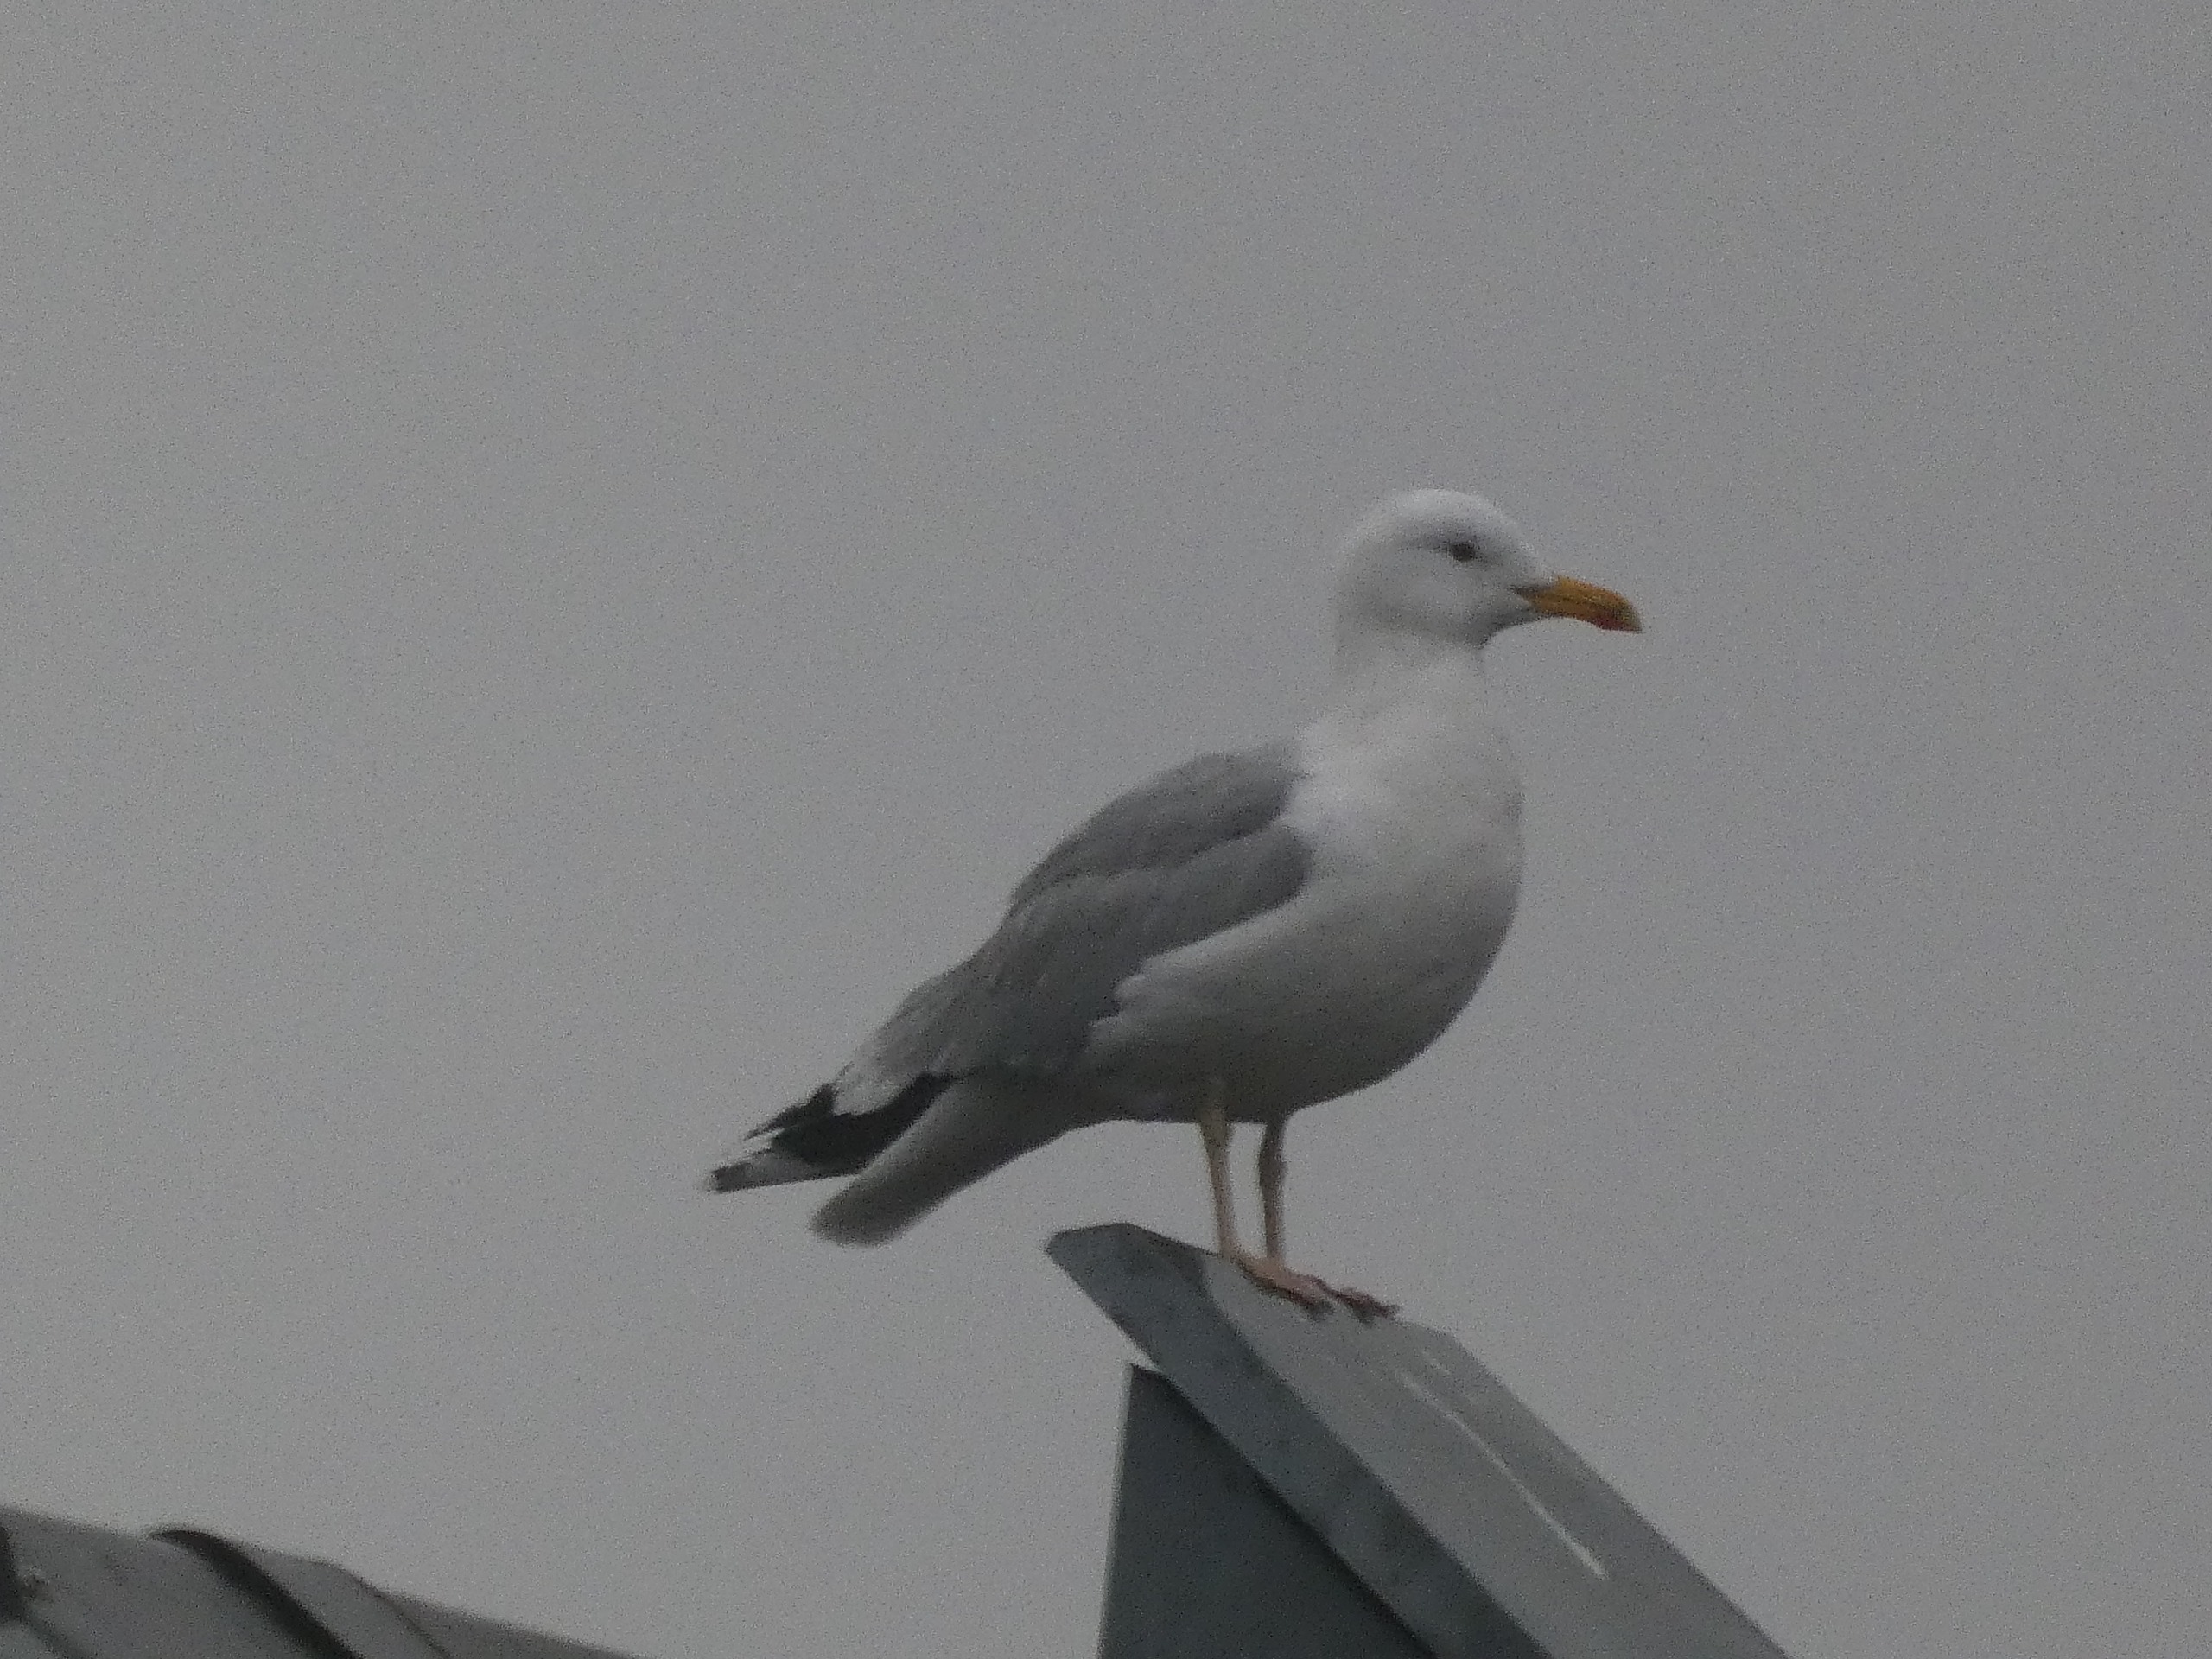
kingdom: Animalia
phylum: Chordata
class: Aves
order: Charadriiformes
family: Laridae
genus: Larus
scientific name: Larus argentatus
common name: Sølvmåge
